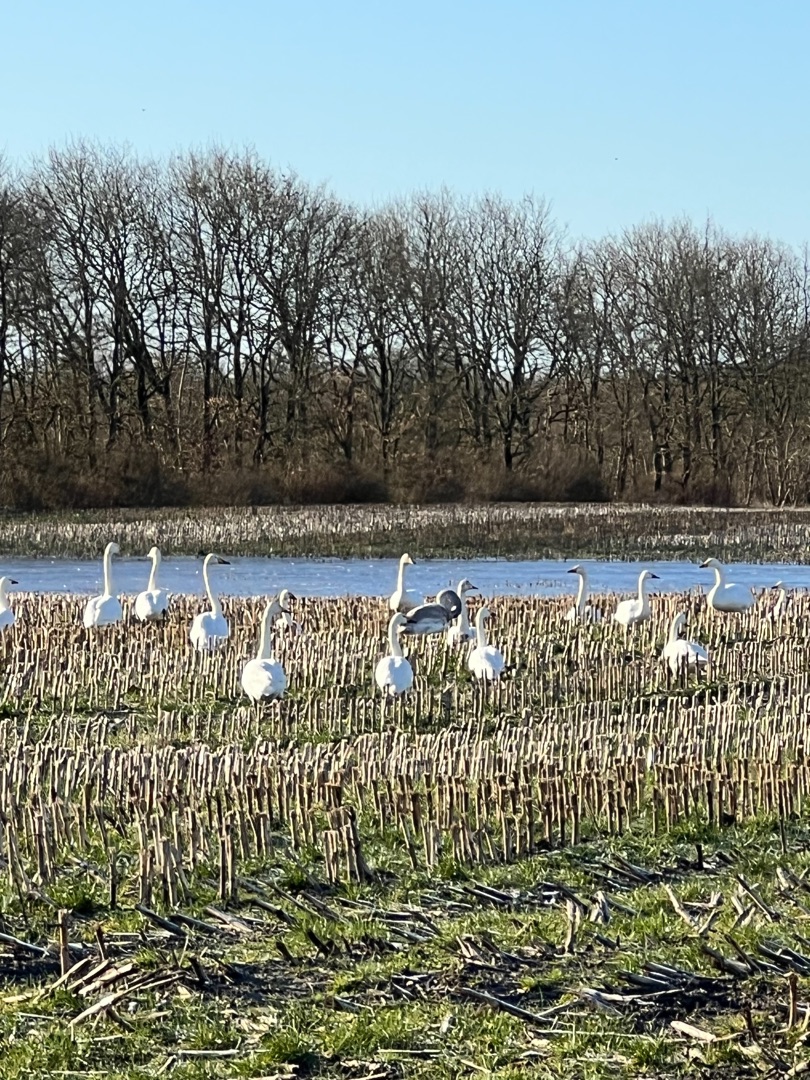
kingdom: Animalia
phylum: Chordata
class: Aves
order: Anseriformes
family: Anatidae
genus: Cygnus
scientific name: Cygnus cygnus
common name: Sangsvane
